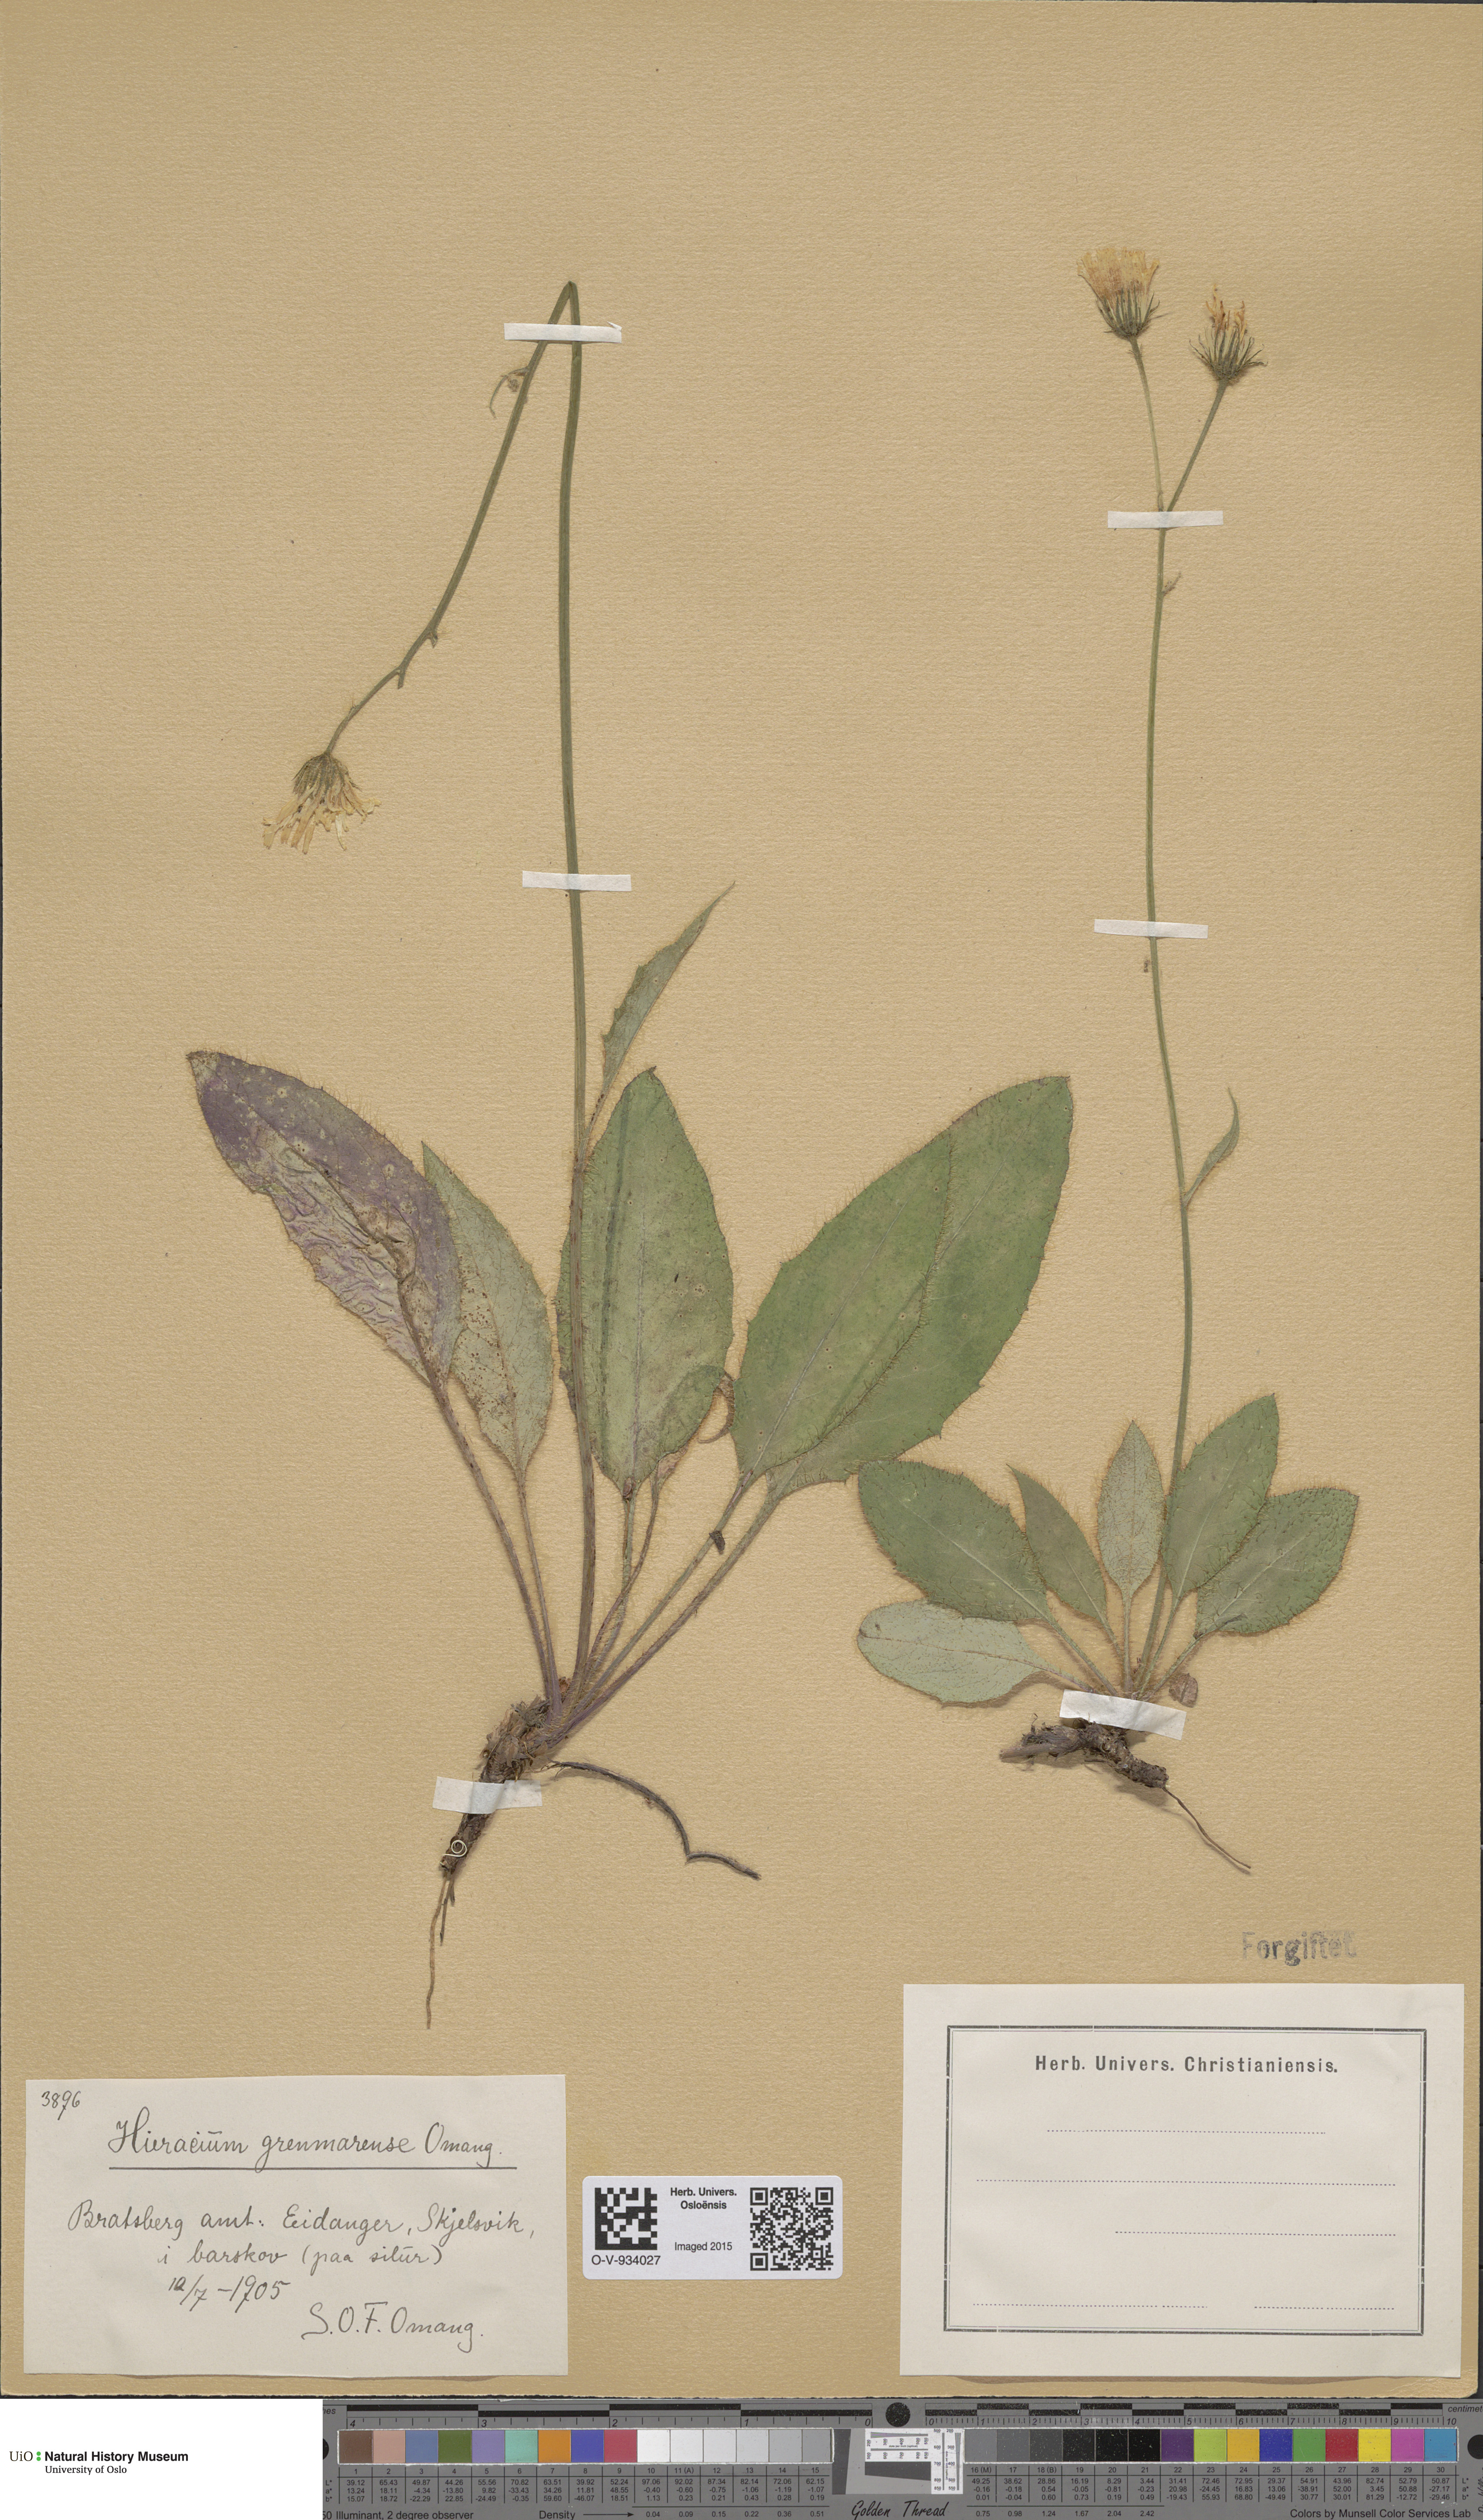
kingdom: Plantae
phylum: Tracheophyta
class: Magnoliopsida
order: Asterales
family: Asteraceae
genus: Hieracium
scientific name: Hieracium schmidtii
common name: Schmidt's hawkweed
